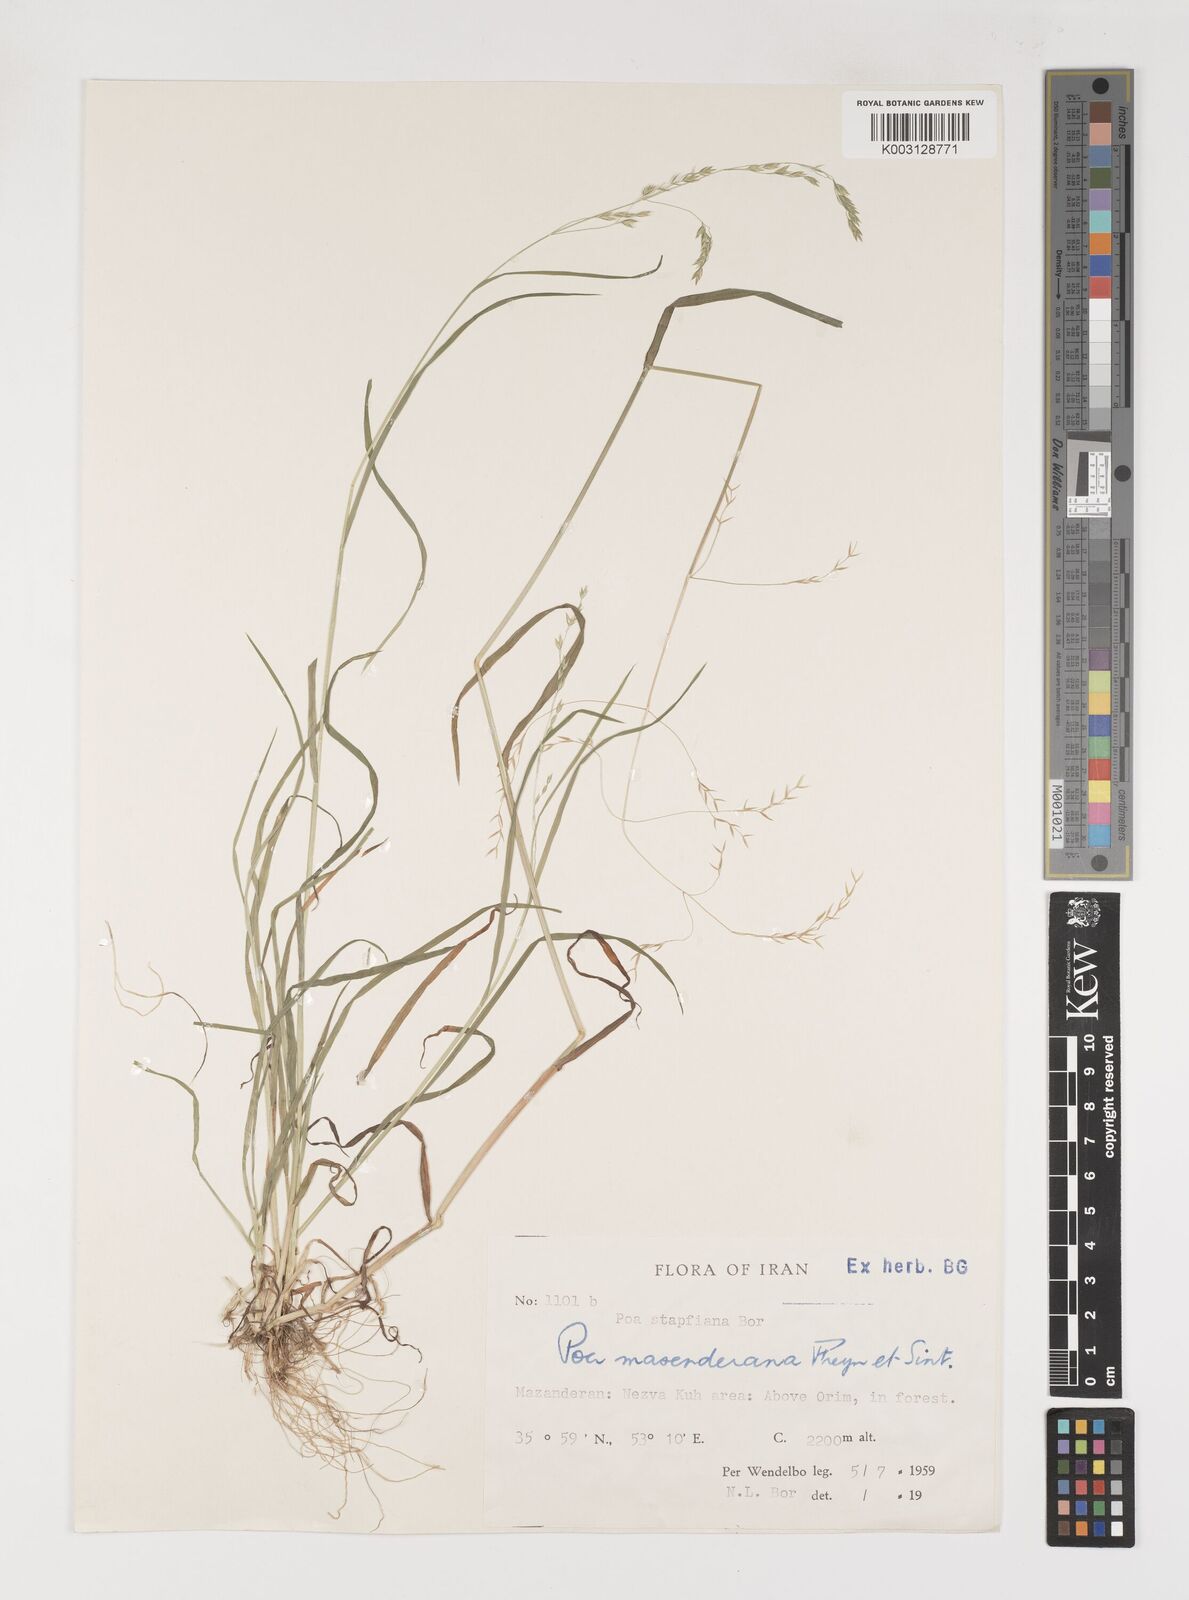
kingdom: Plantae
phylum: Tracheophyta
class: Liliopsida
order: Poales
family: Poaceae
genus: Poa
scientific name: Poa masenderana
